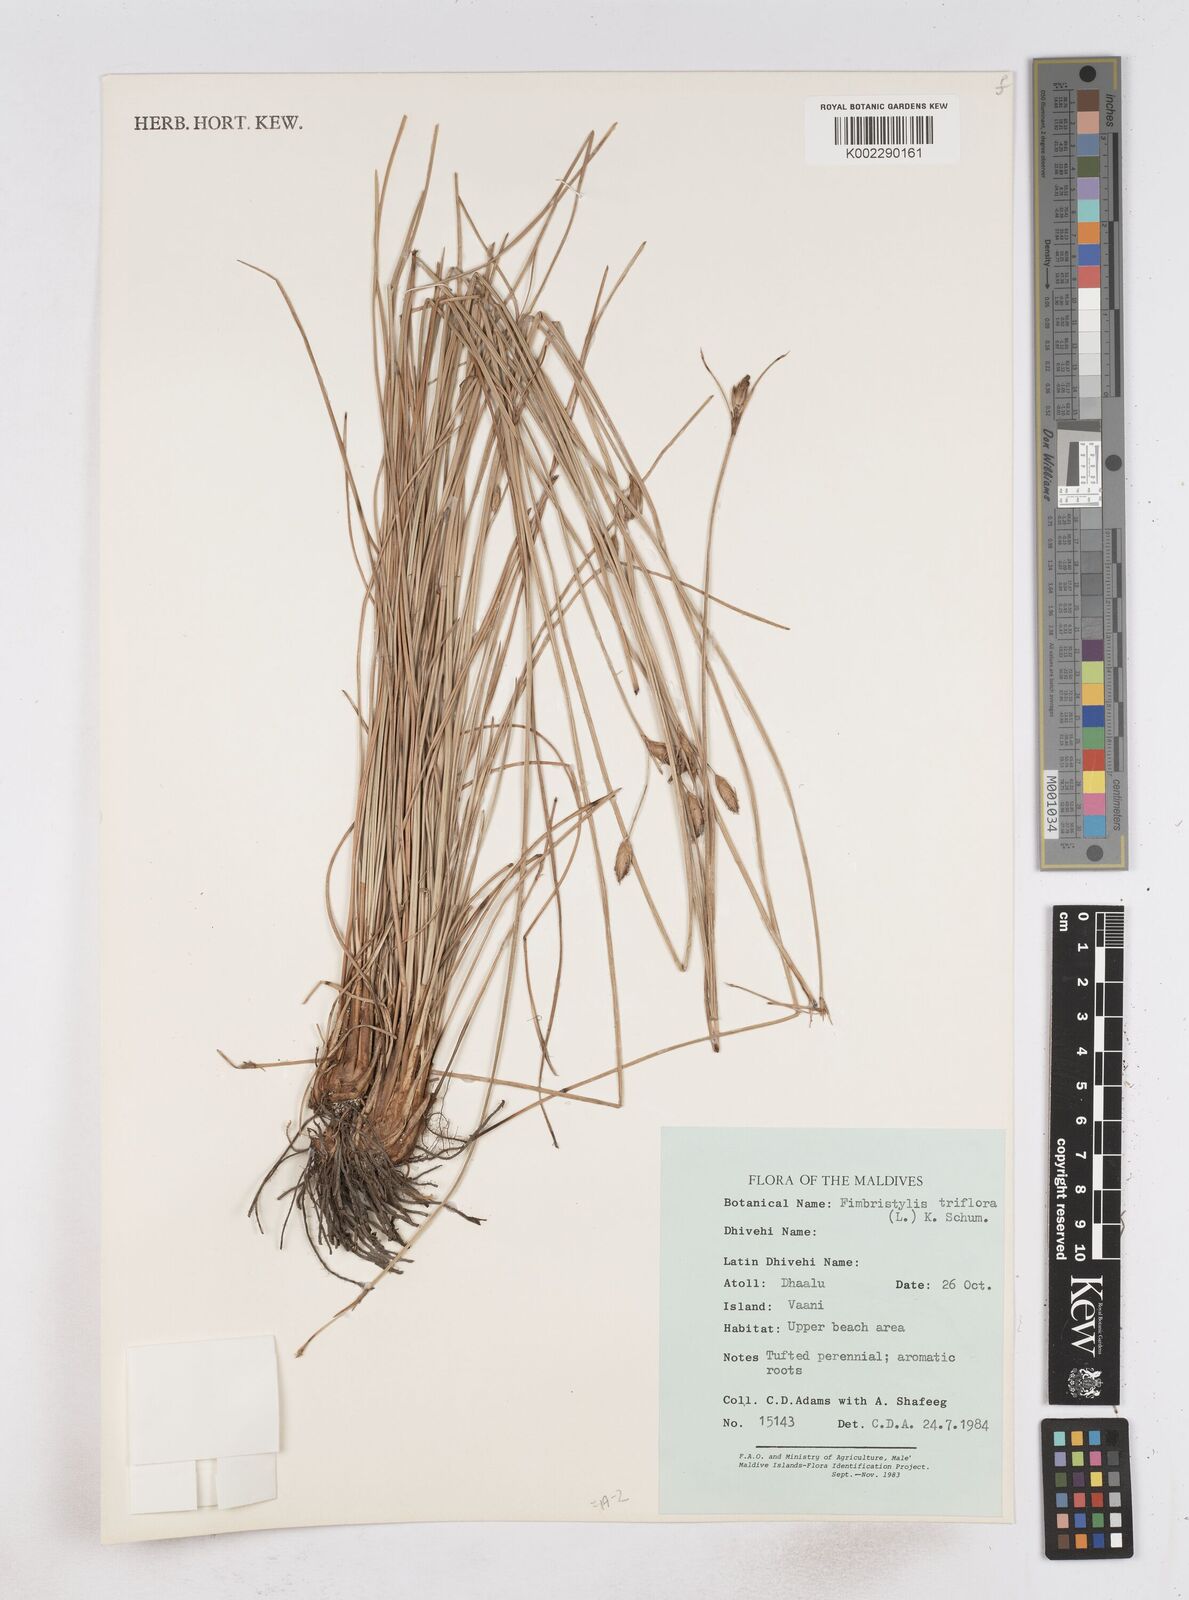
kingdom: Plantae
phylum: Tracheophyta
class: Liliopsida
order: Poales
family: Cyperaceae
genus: Abildgaardia
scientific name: Abildgaardia triflora
